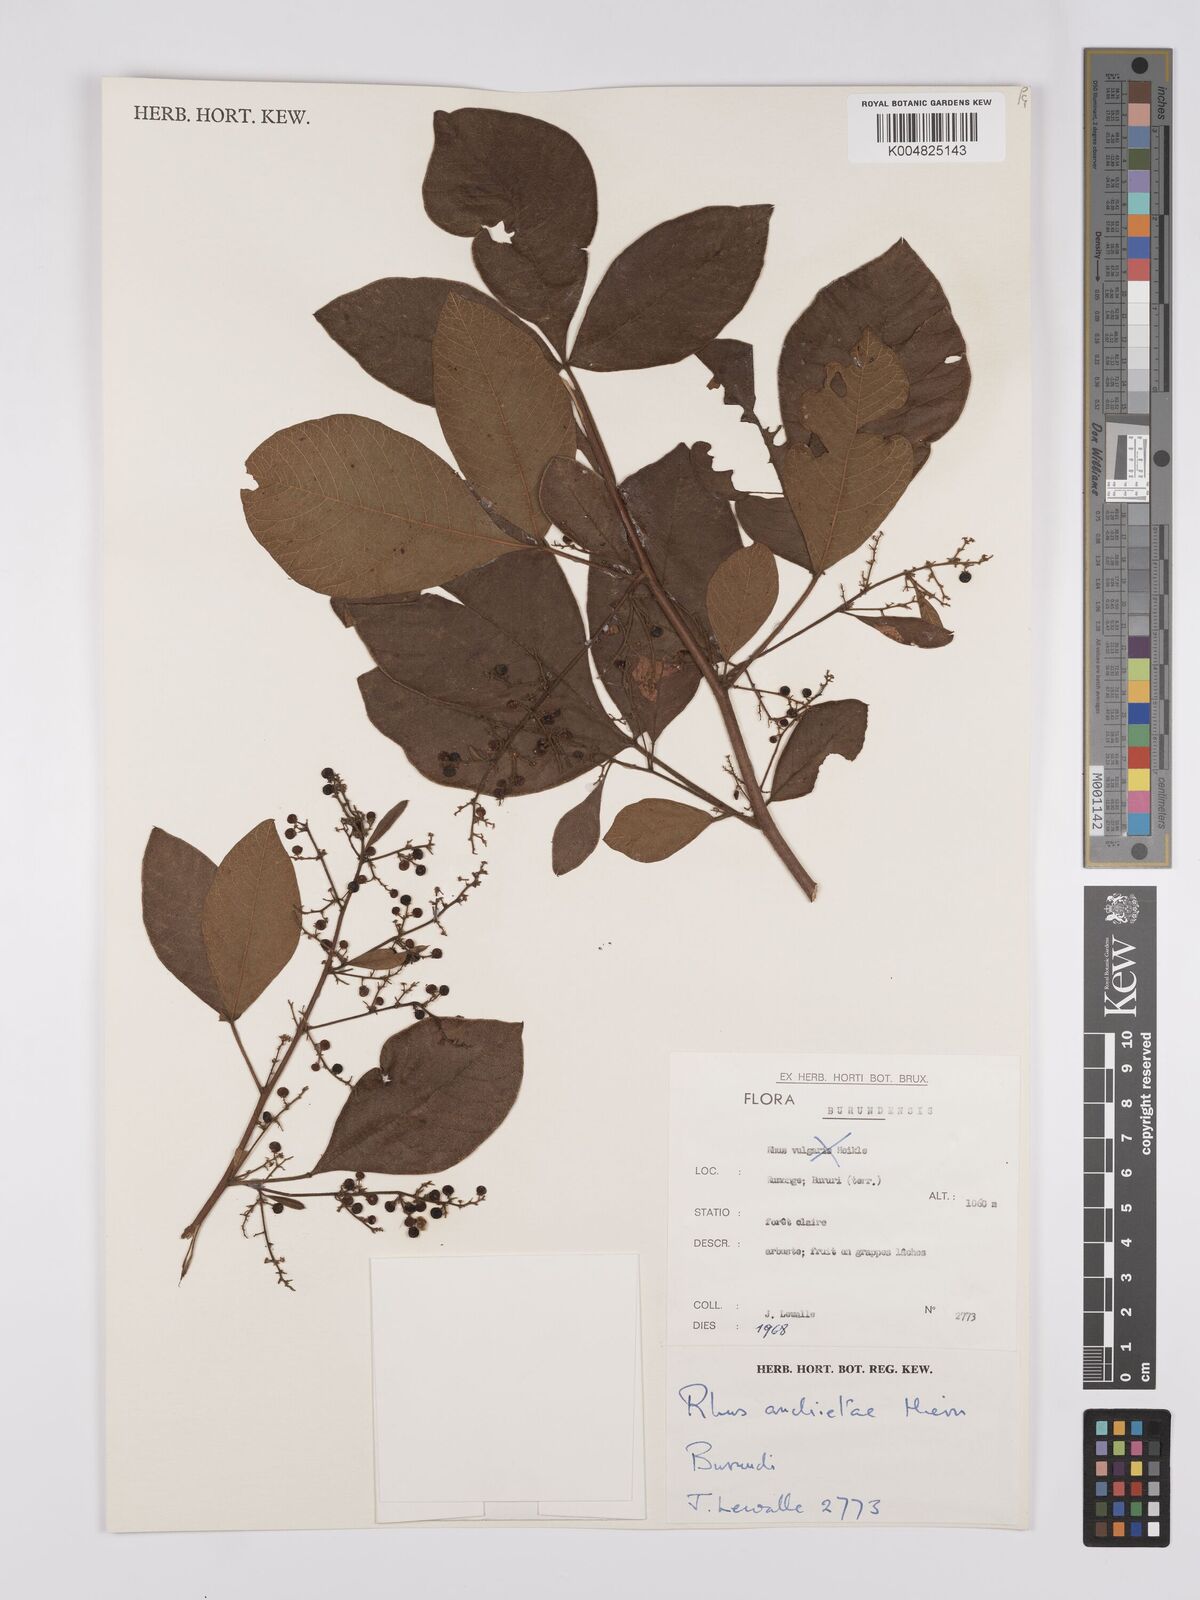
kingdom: Plantae
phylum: Tracheophyta
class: Magnoliopsida
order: Sapindales
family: Anacardiaceae
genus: Searsia
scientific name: Searsia anchietae
